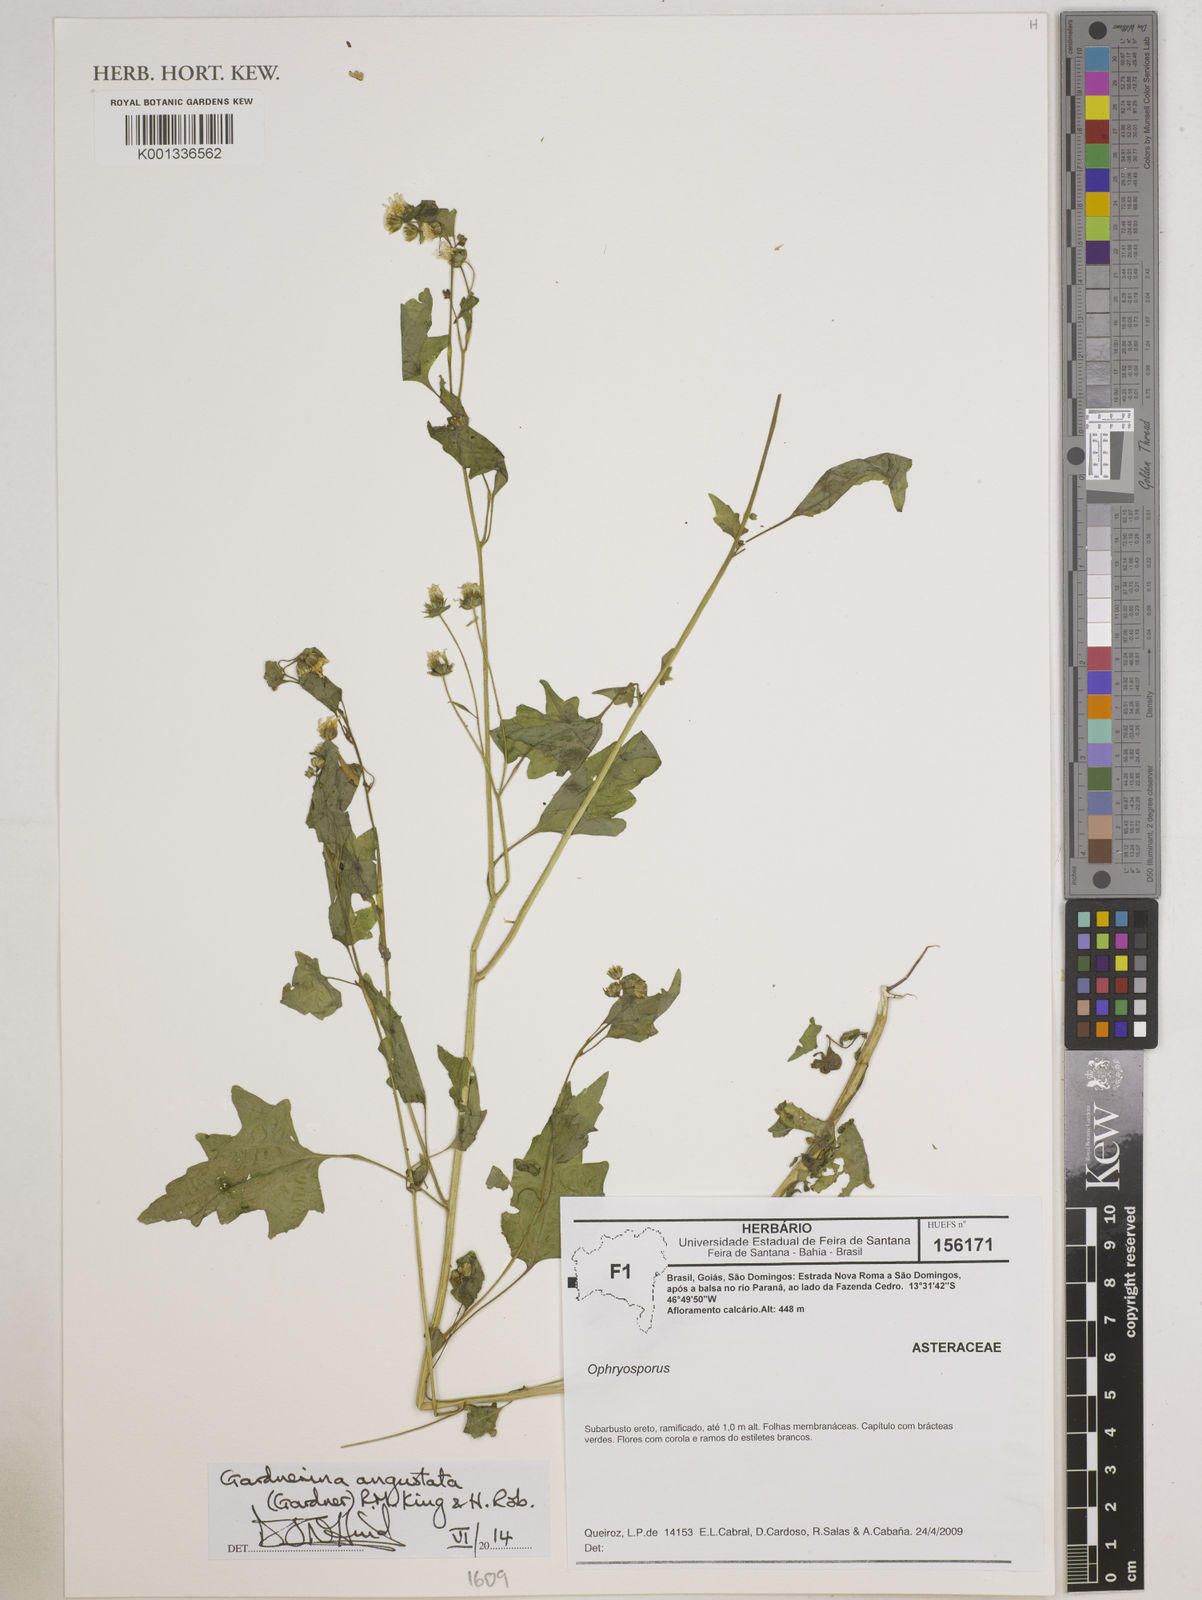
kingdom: Plantae
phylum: Tracheophyta
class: Magnoliopsida
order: Asterales
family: Asteraceae
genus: Gardnerina
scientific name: Gardnerina angustata
